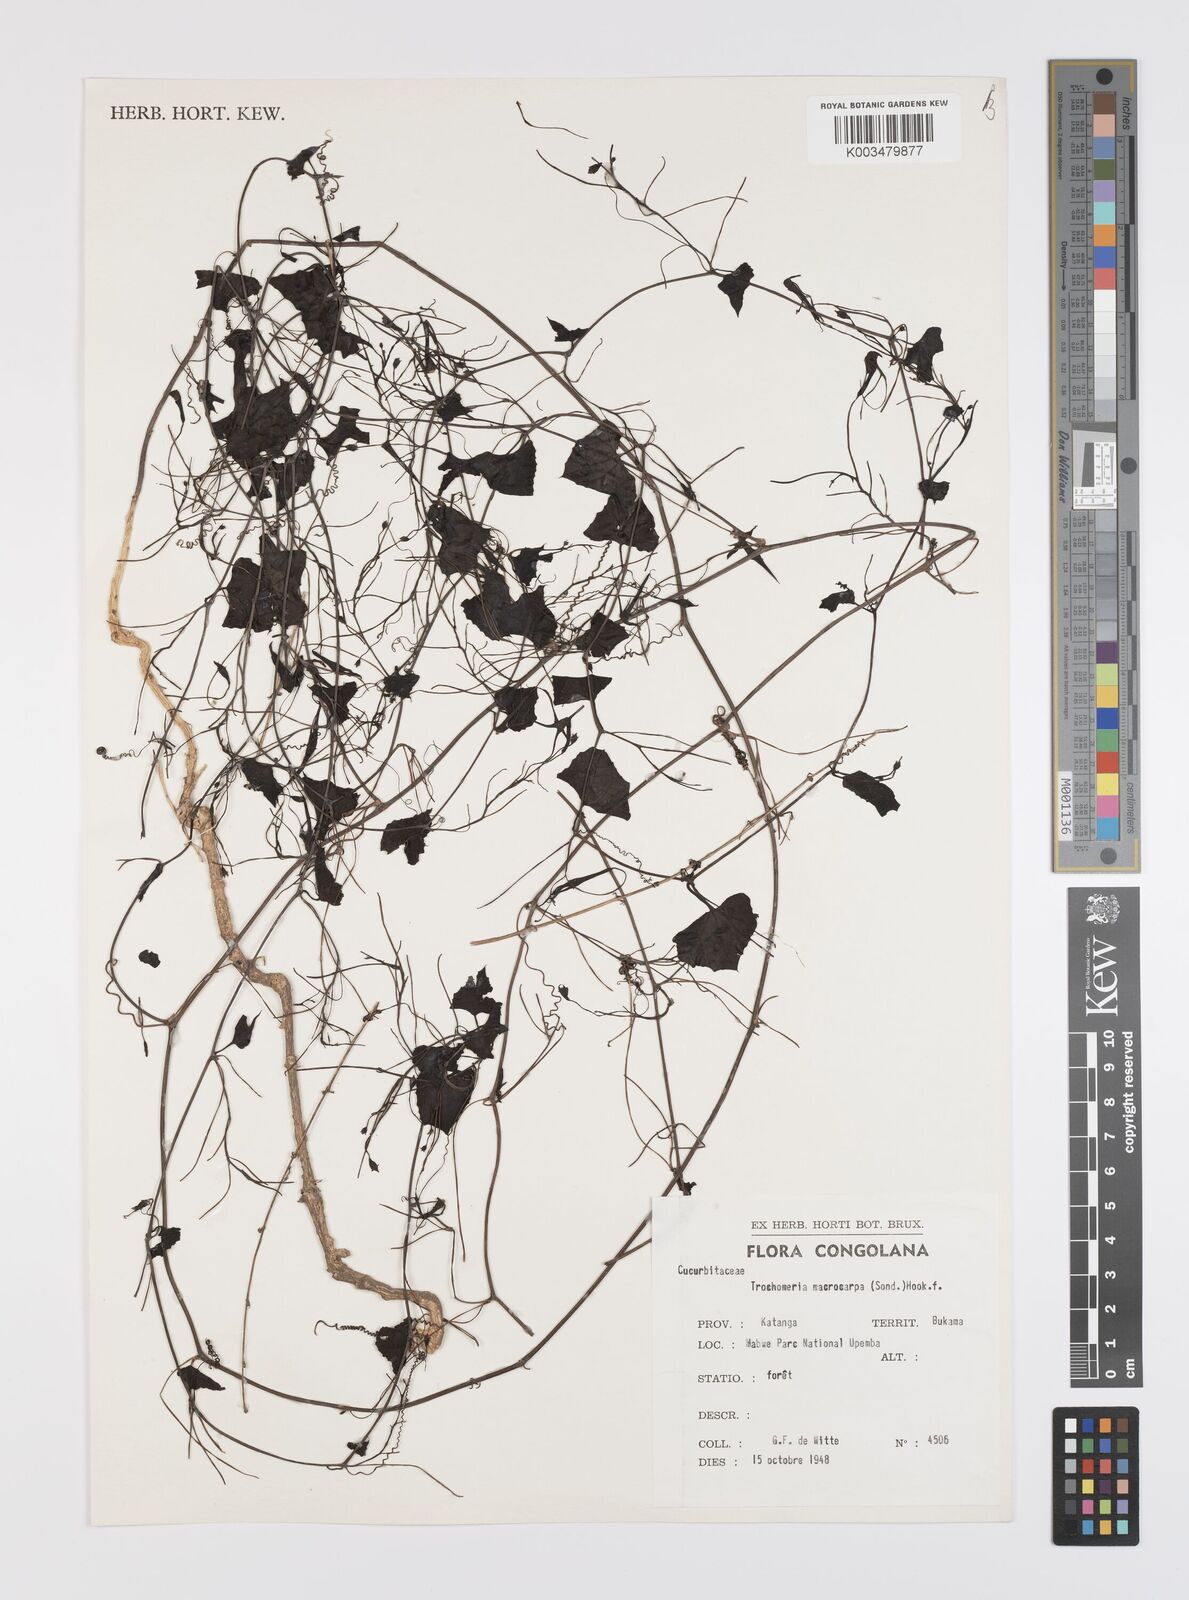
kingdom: Plantae
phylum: Tracheophyta
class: Magnoliopsida
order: Cucurbitales
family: Cucurbitaceae
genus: Trochomeria
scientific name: Trochomeria macrocarpa
